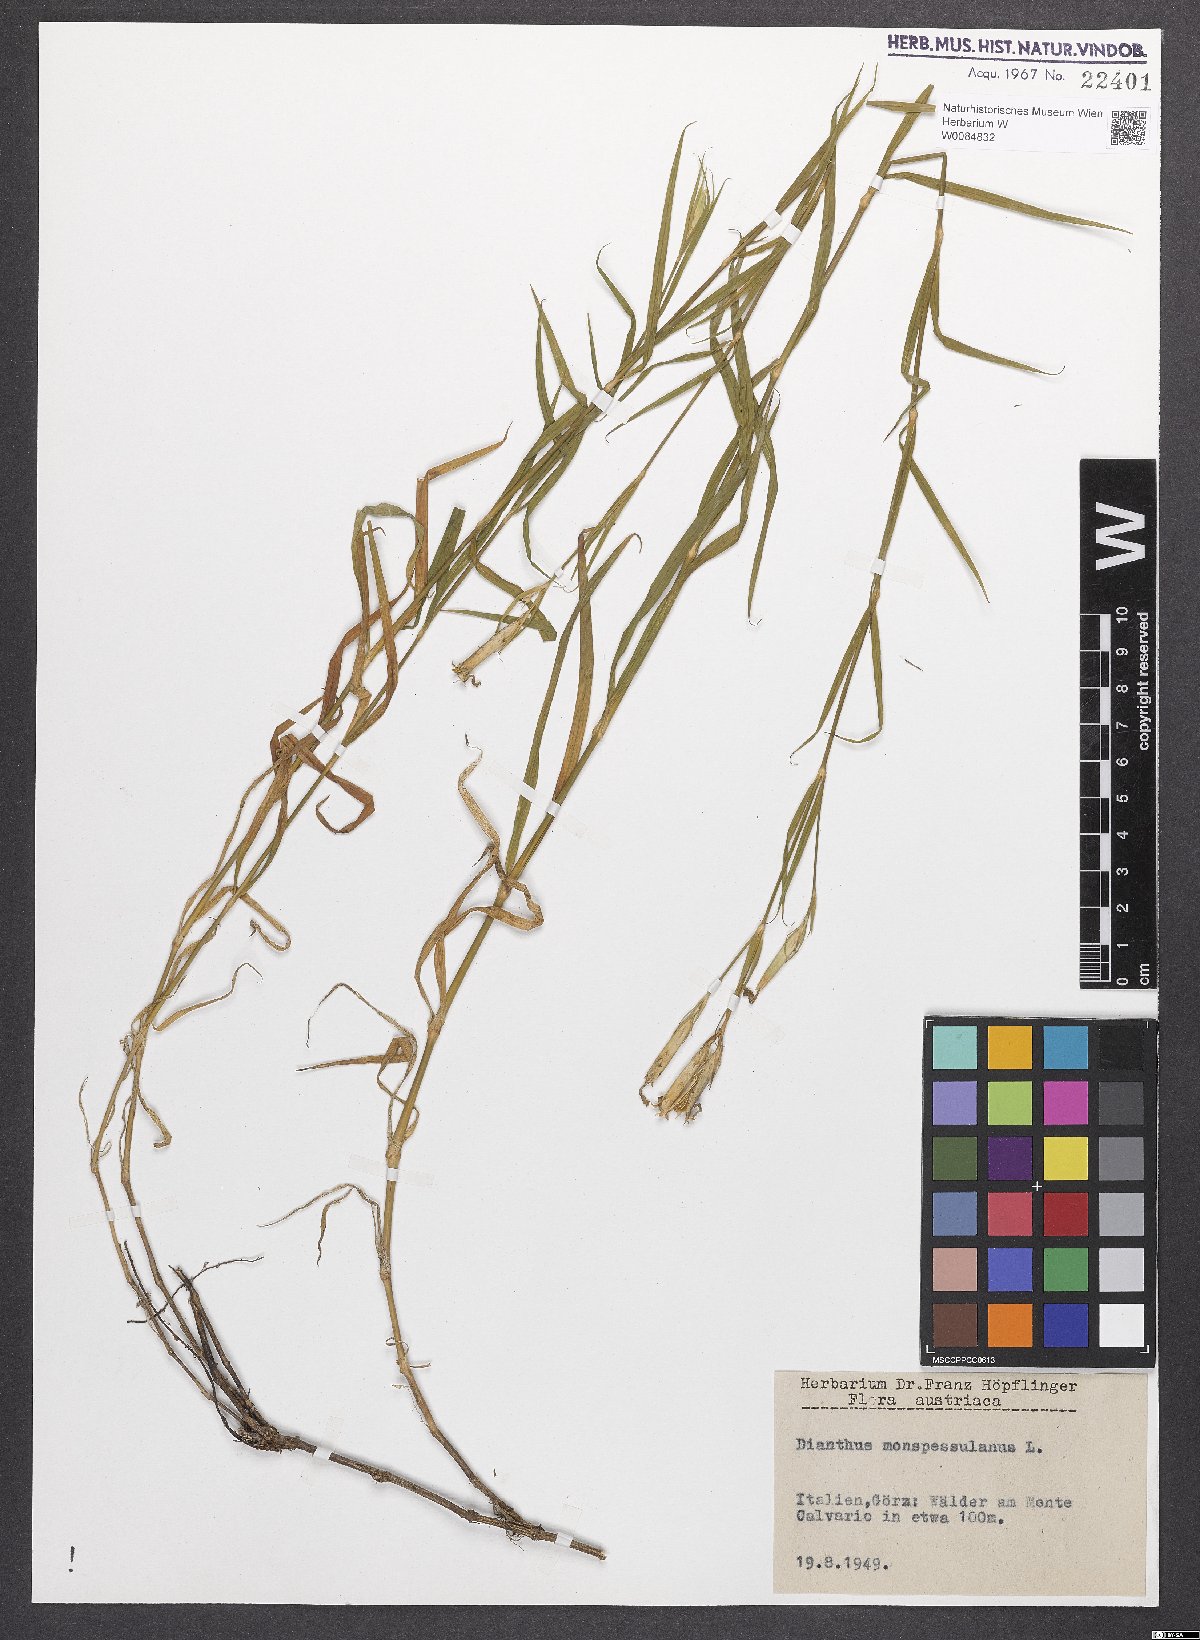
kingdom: Plantae
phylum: Tracheophyta
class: Magnoliopsida
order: Caryophyllales
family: Caryophyllaceae
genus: Dianthus
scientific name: Dianthus hyssopifolius
